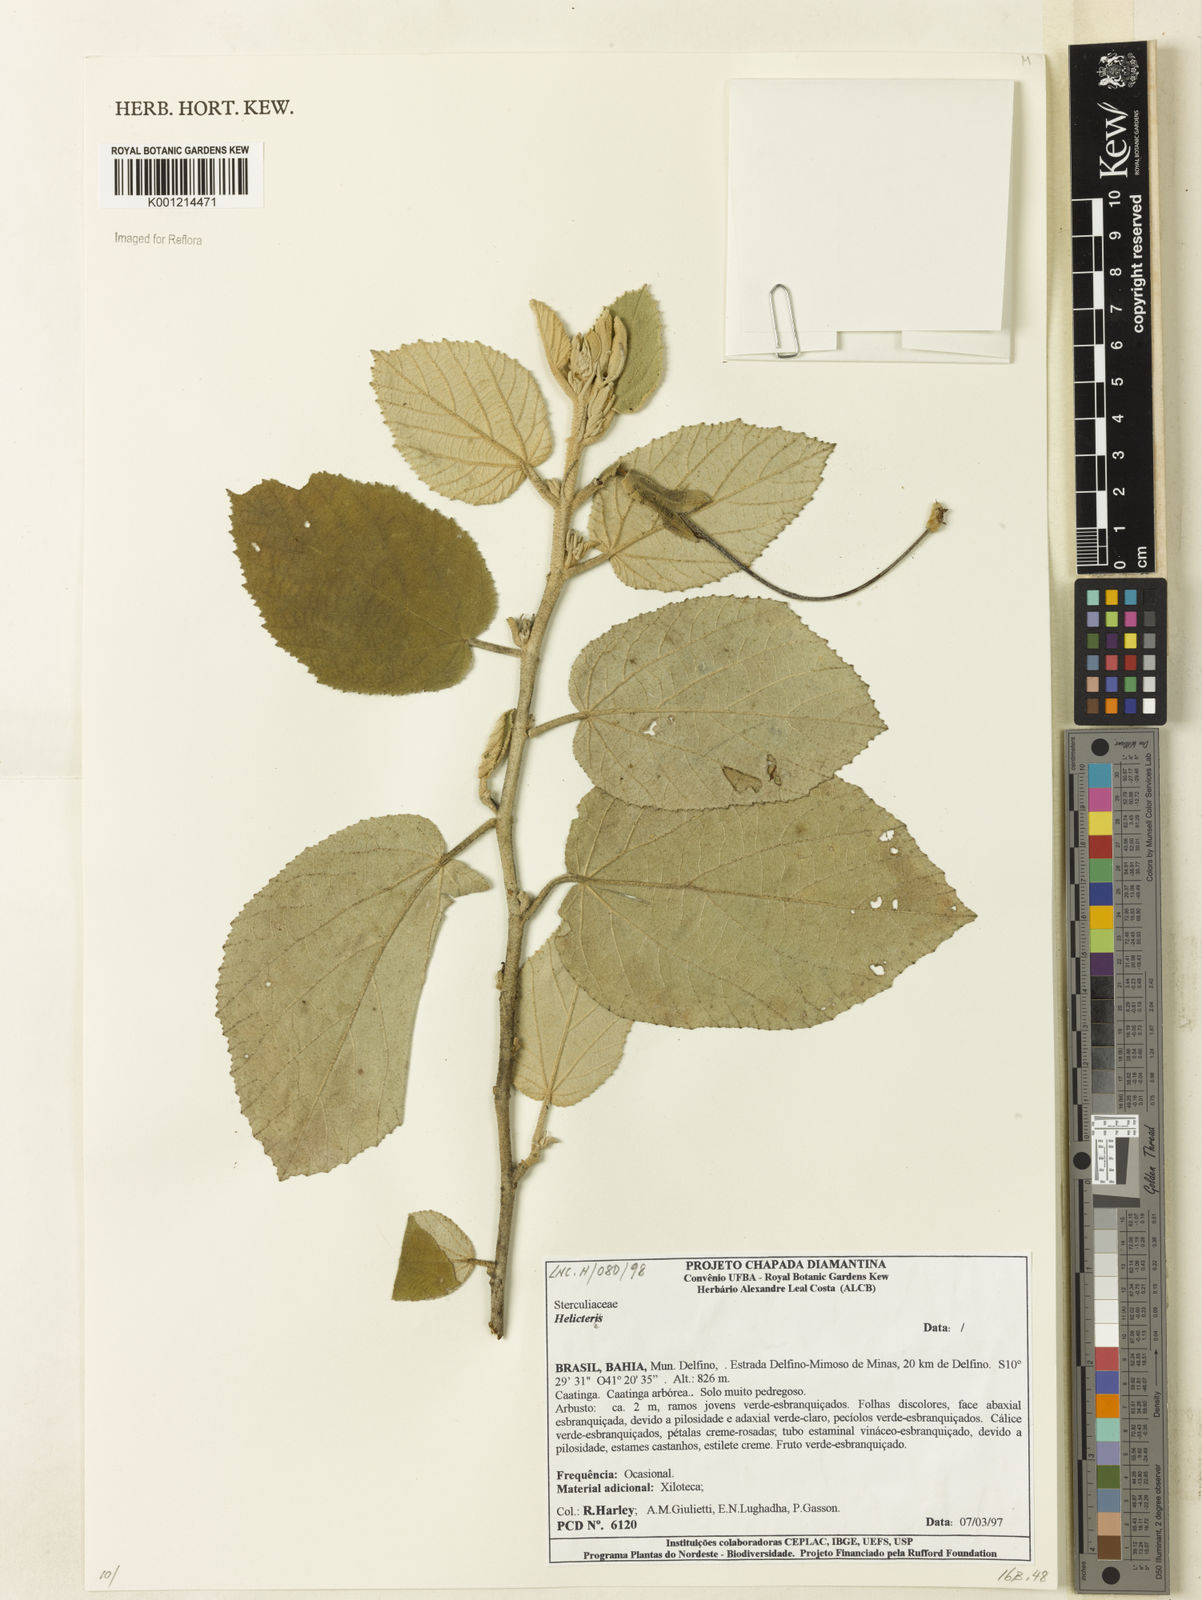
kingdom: Plantae
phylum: Tracheophyta
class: Magnoliopsida
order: Malvales
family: Malvaceae
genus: Helicteres
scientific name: Helicteres
